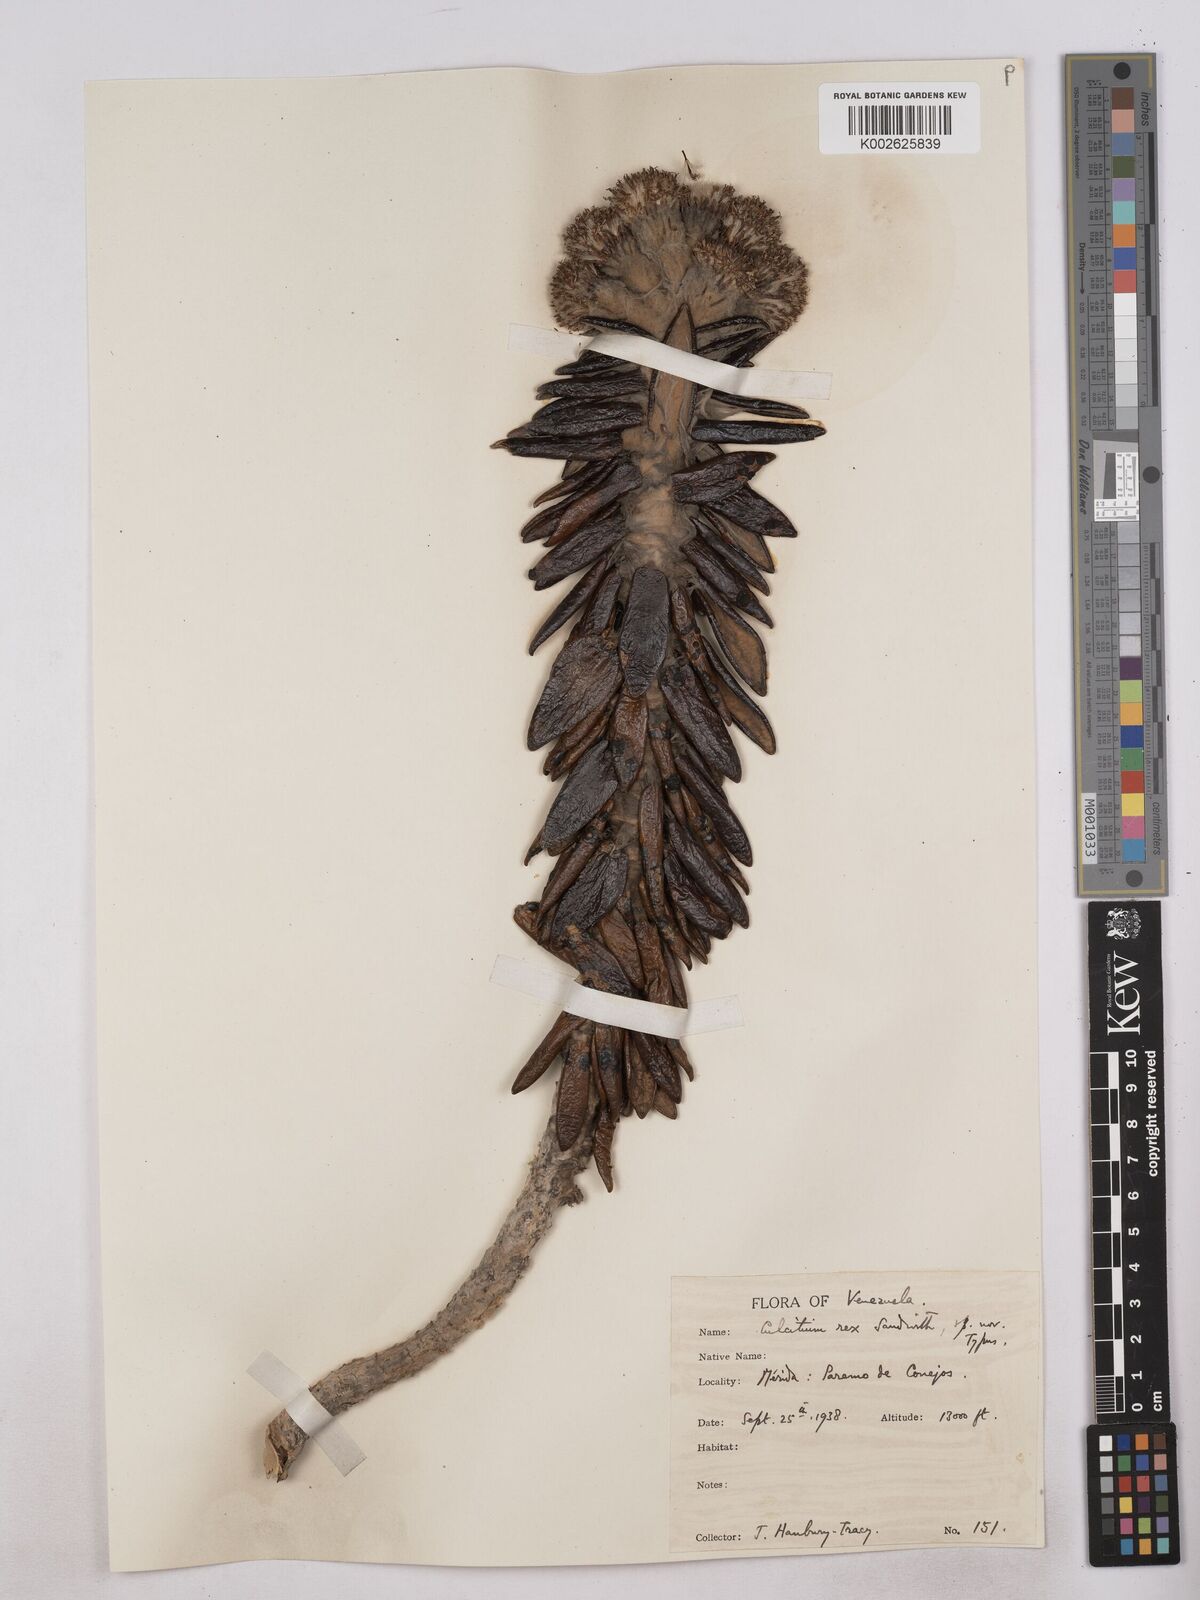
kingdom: Plantae
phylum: Tracheophyta
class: Magnoliopsida
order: Asterales
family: Asteraceae
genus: Monticalia
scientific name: Monticalia rex
